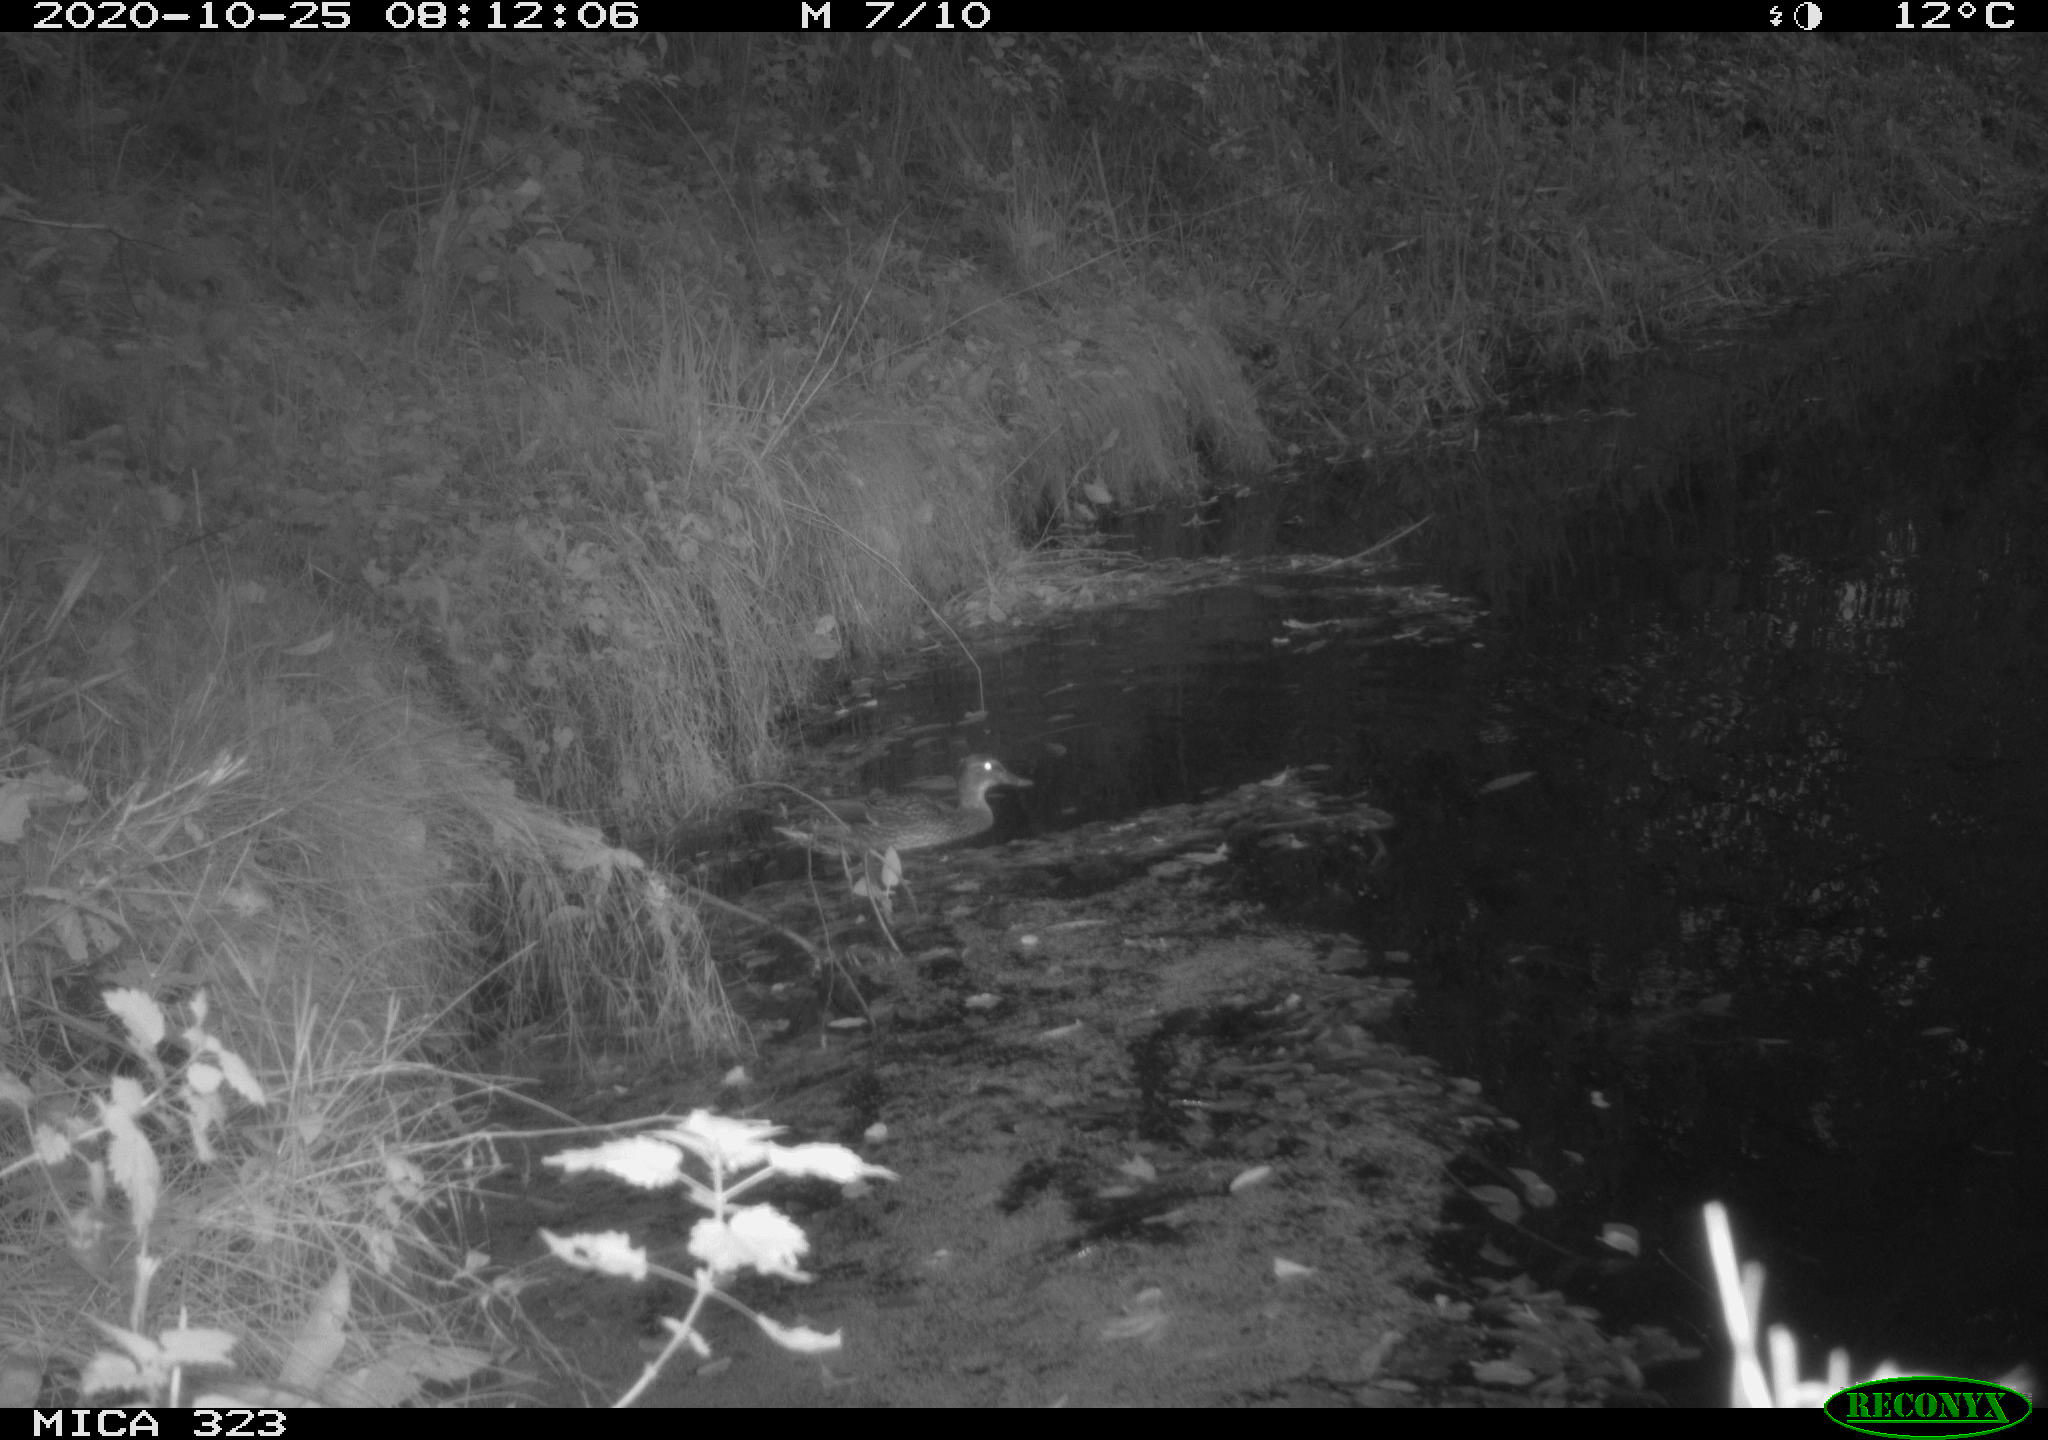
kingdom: Animalia
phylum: Chordata
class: Aves
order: Anseriformes
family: Anatidae
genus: Anas
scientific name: Anas platyrhynchos
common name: Mallard
